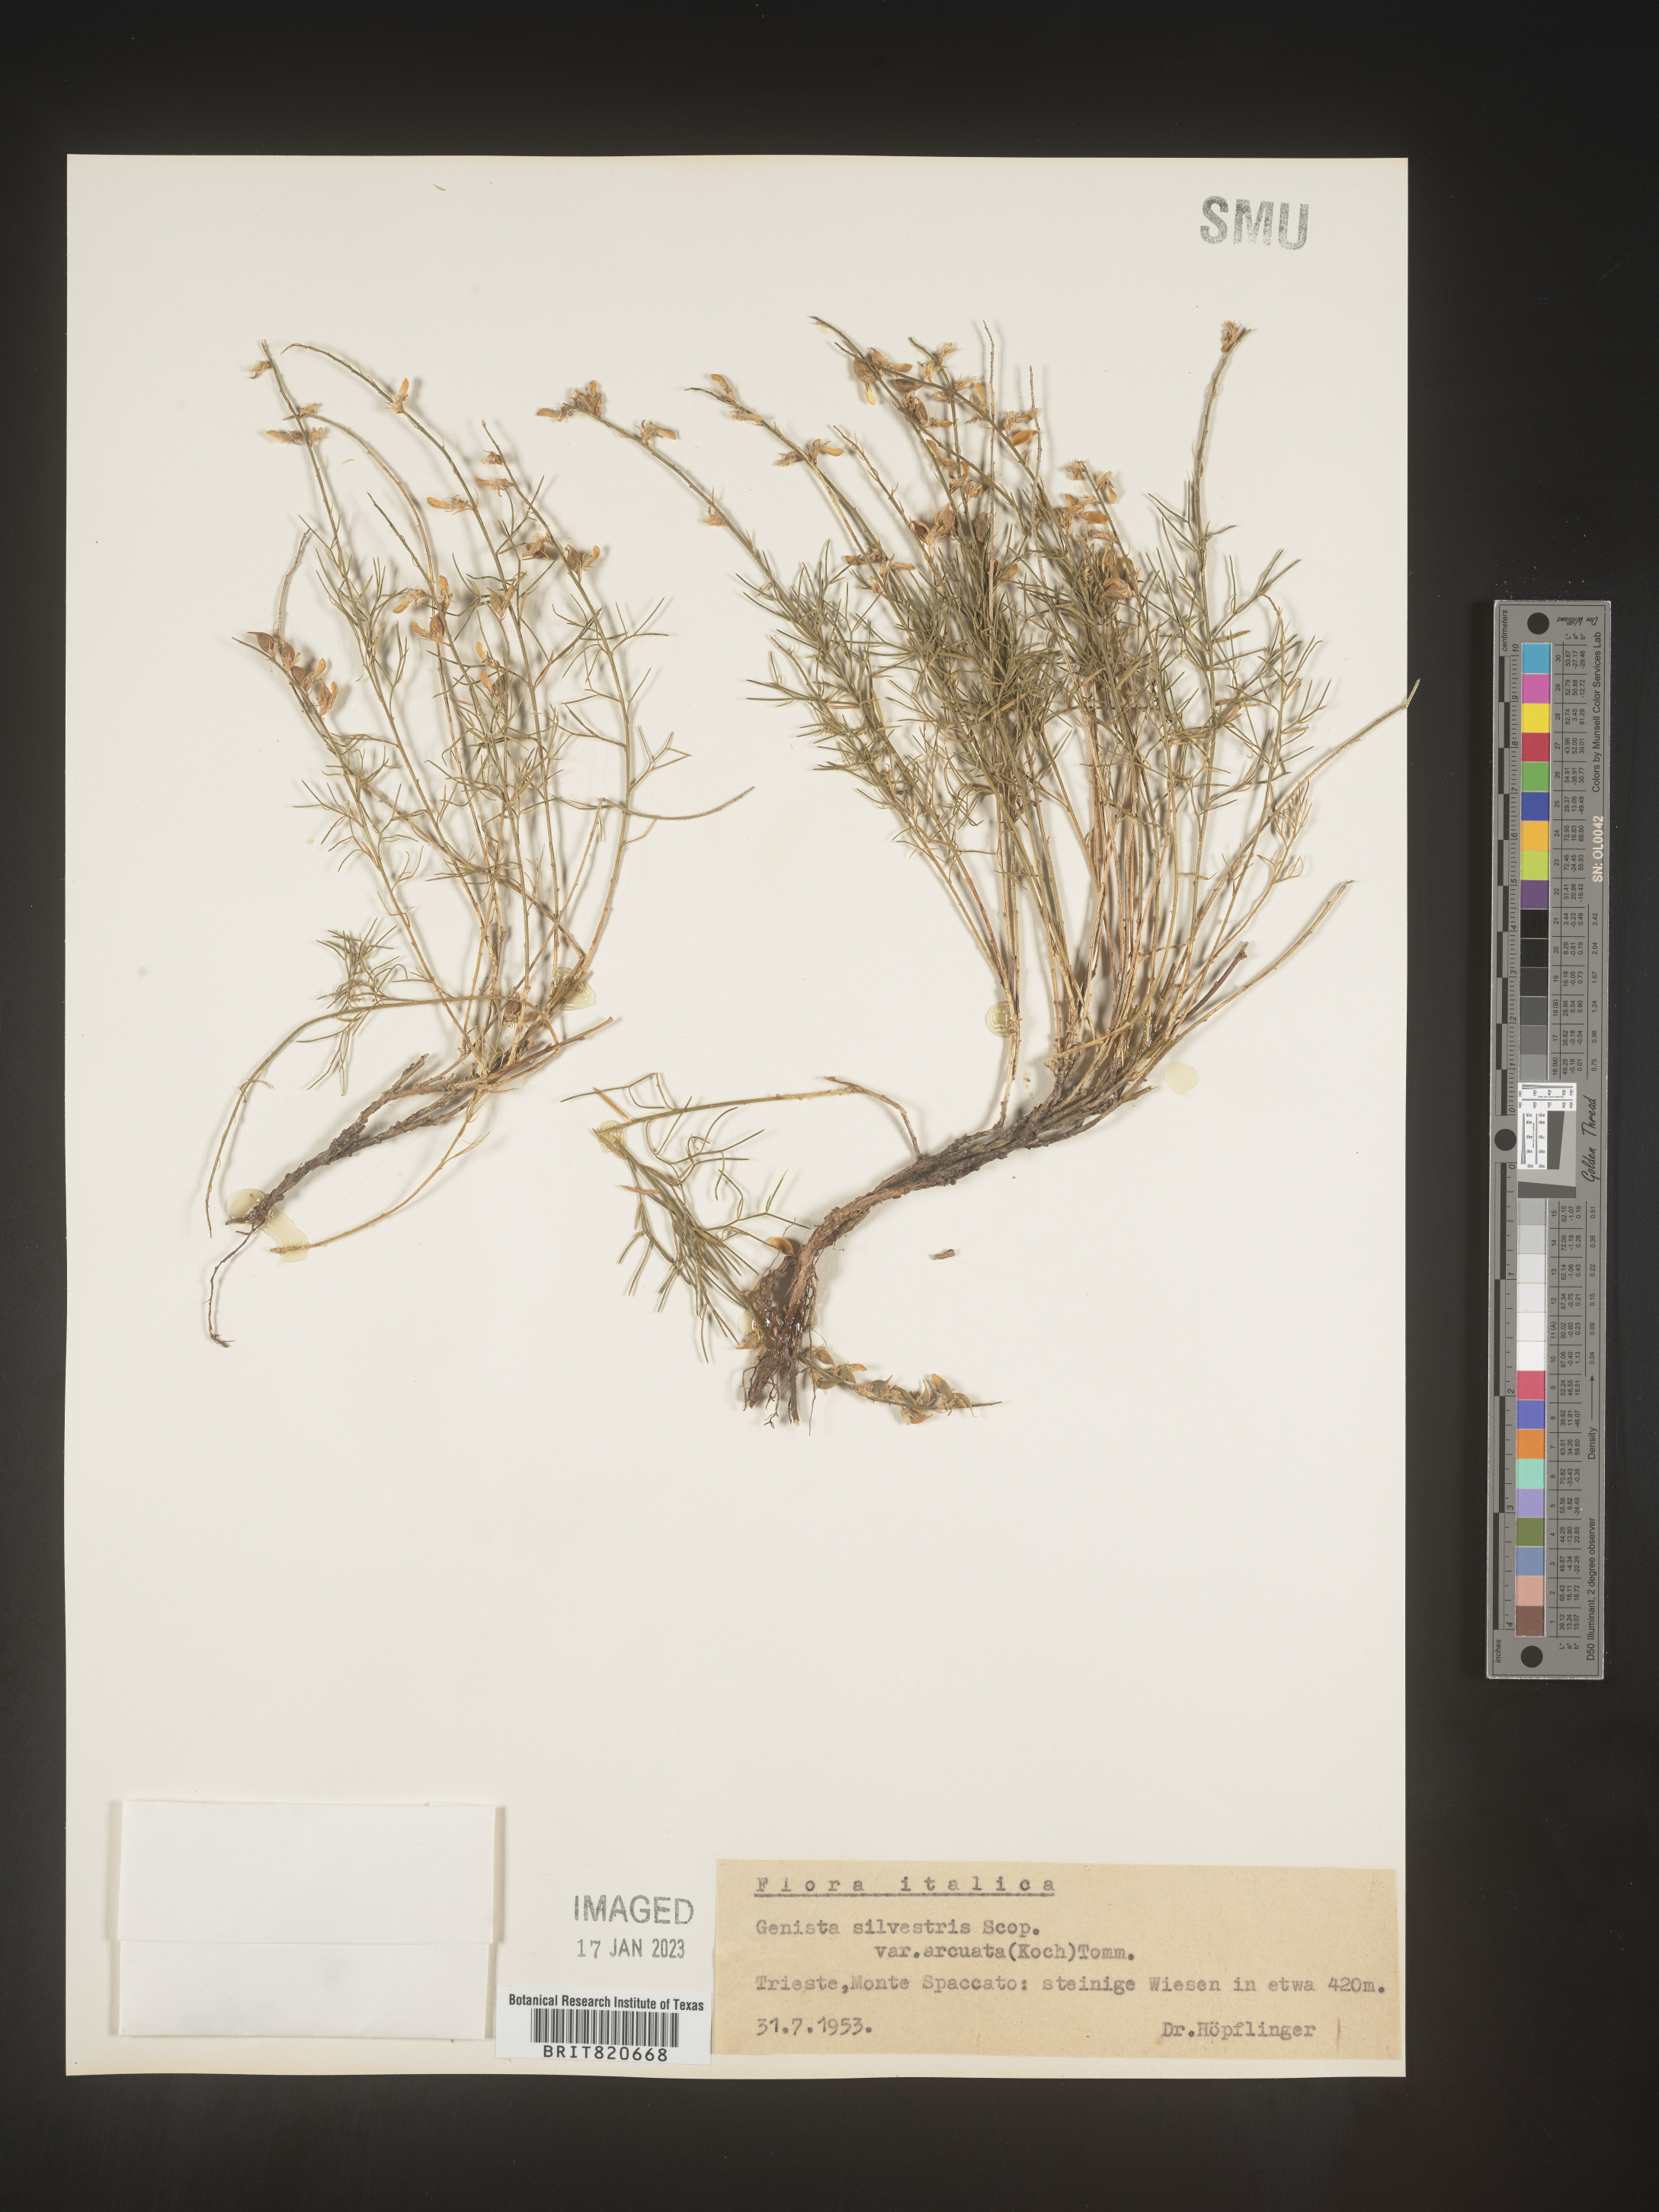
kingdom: Plantae
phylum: Tracheophyta
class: Magnoliopsida
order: Fabales
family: Fabaceae
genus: Genista
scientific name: Genista
